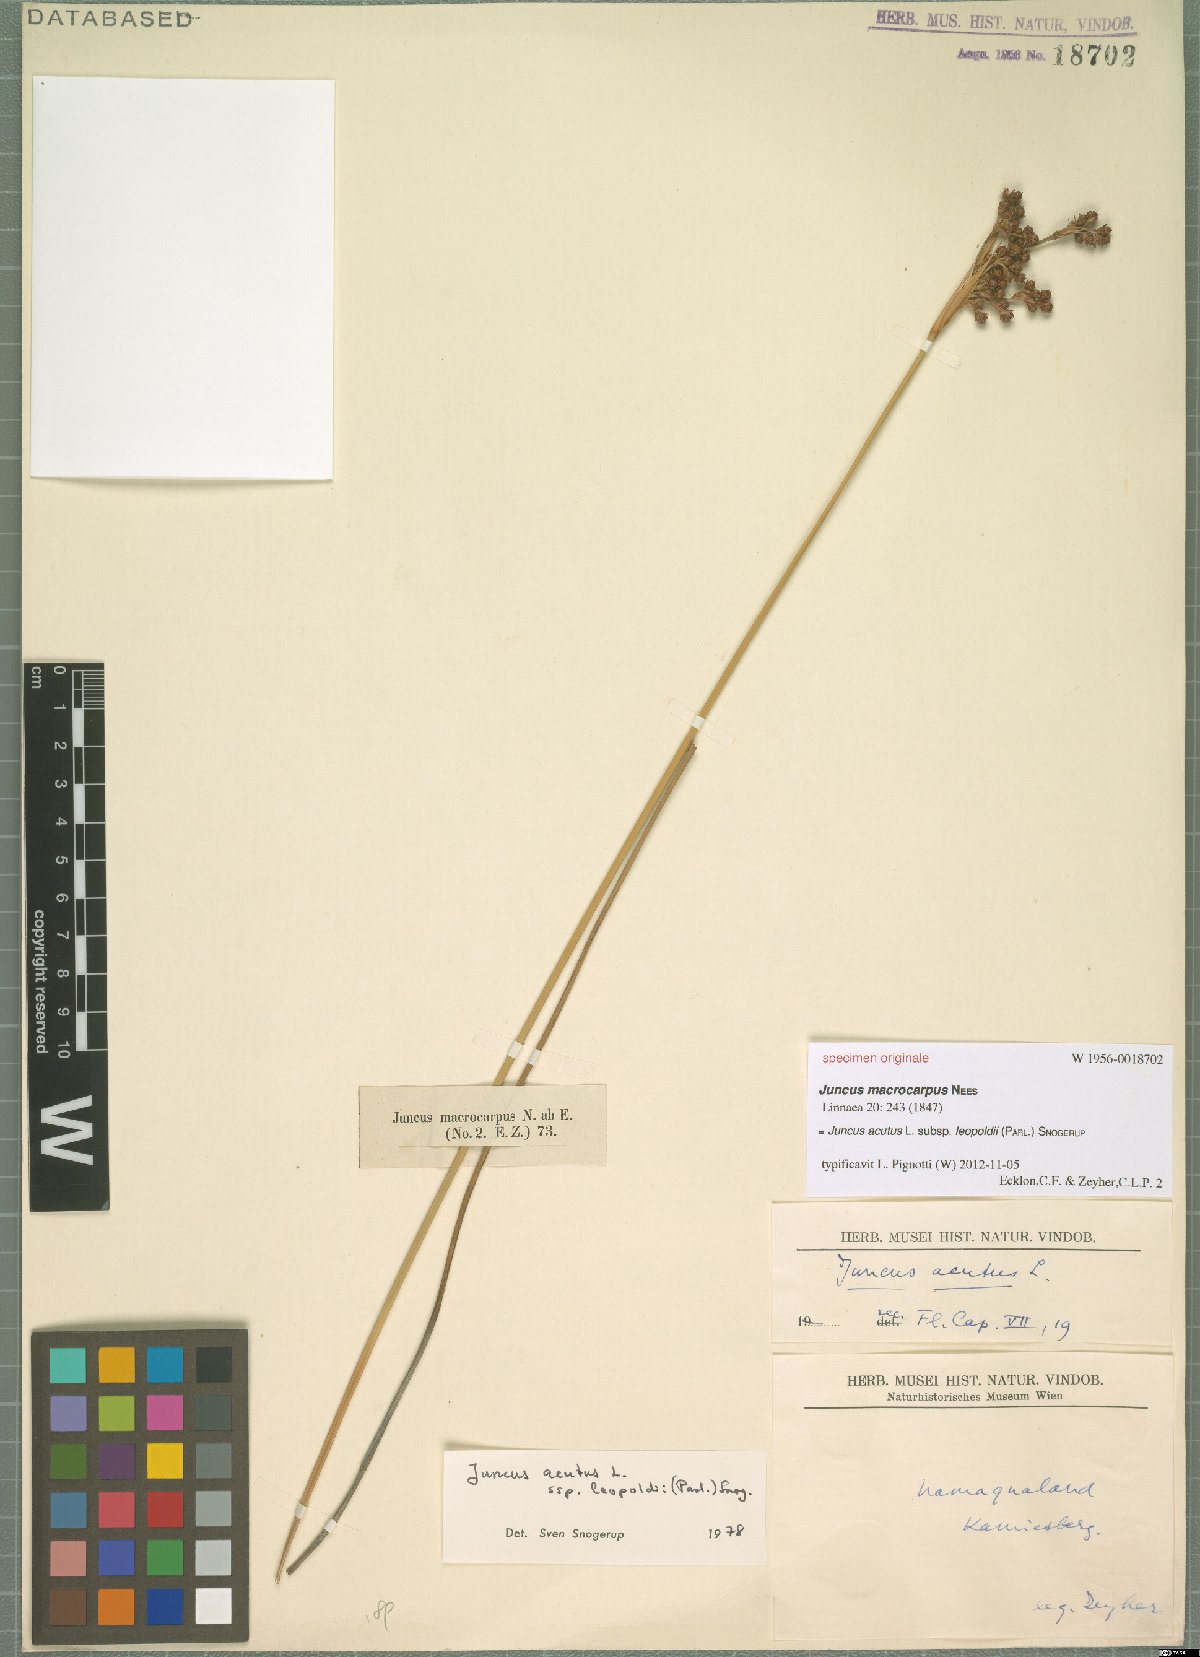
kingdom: Plantae
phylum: Tracheophyta
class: Liliopsida
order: Poales
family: Juncaceae
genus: Juncus
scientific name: Juncus acutus
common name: Sharp rush
